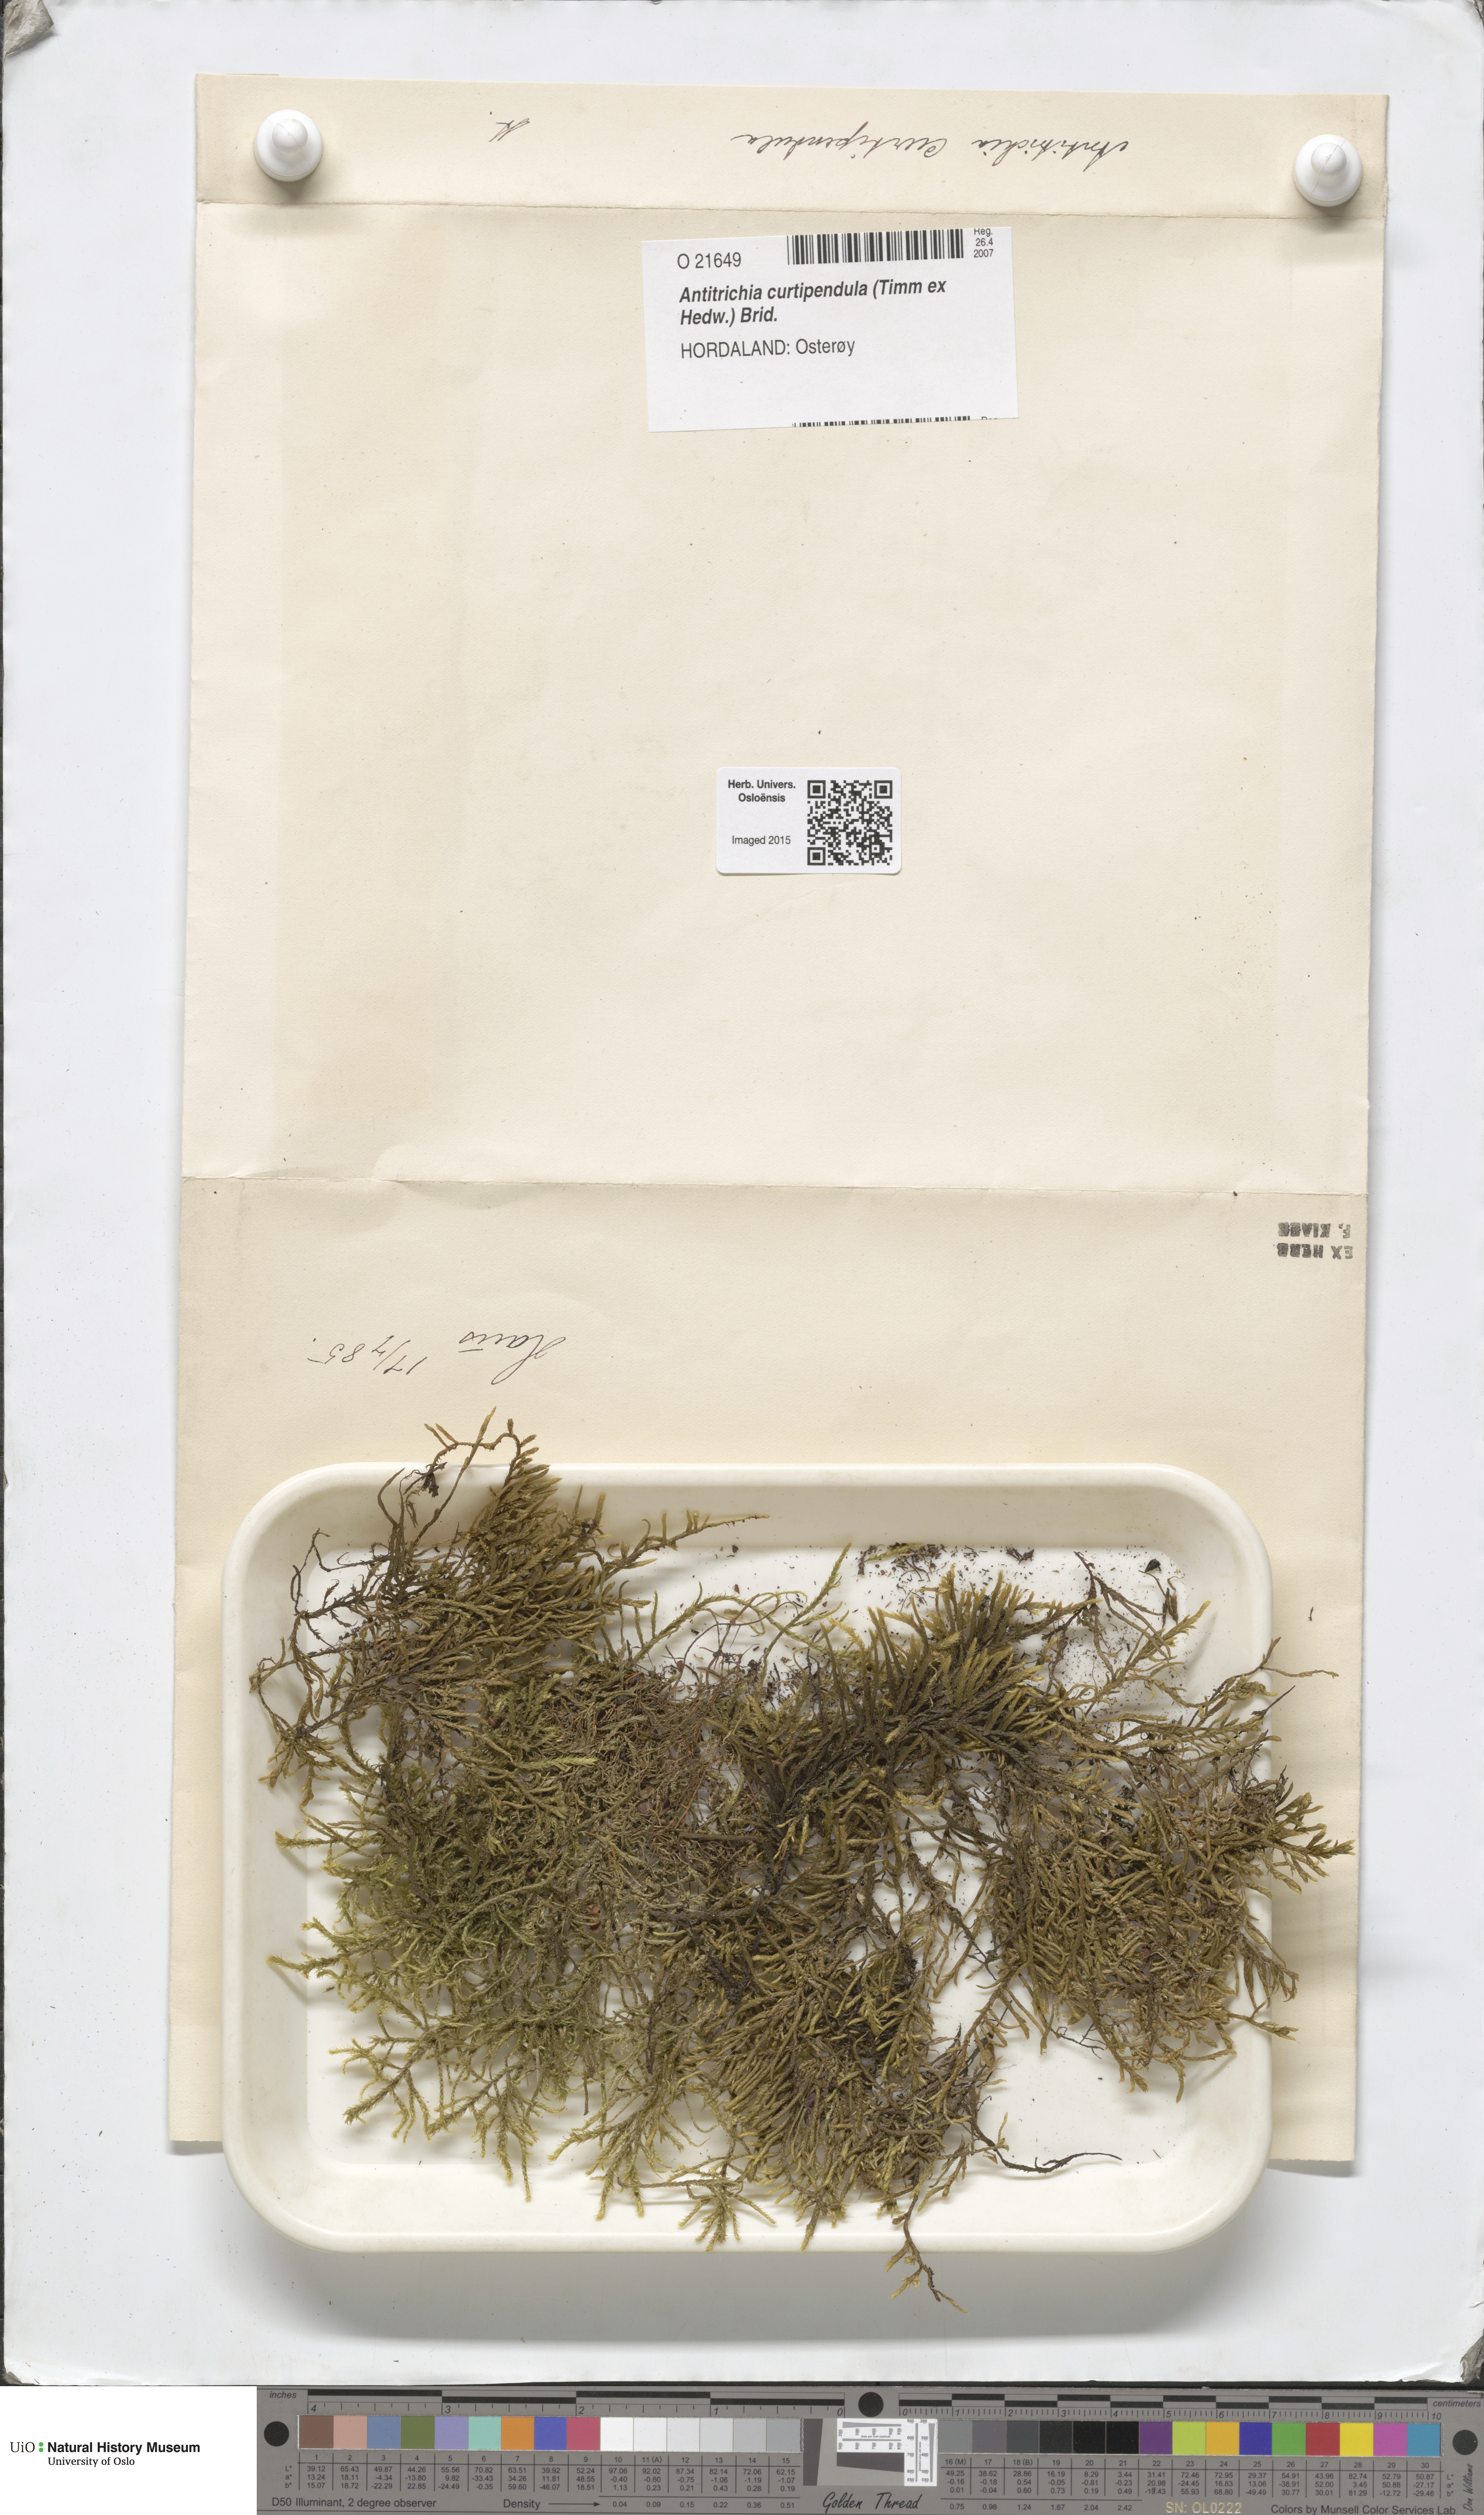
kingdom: Plantae
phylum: Bryophyta
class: Bryopsida
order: Hypnales
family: Antitrichiaceae
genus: Antitrichia
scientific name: Antitrichia curtipendula
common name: Pendulous wing-moss
